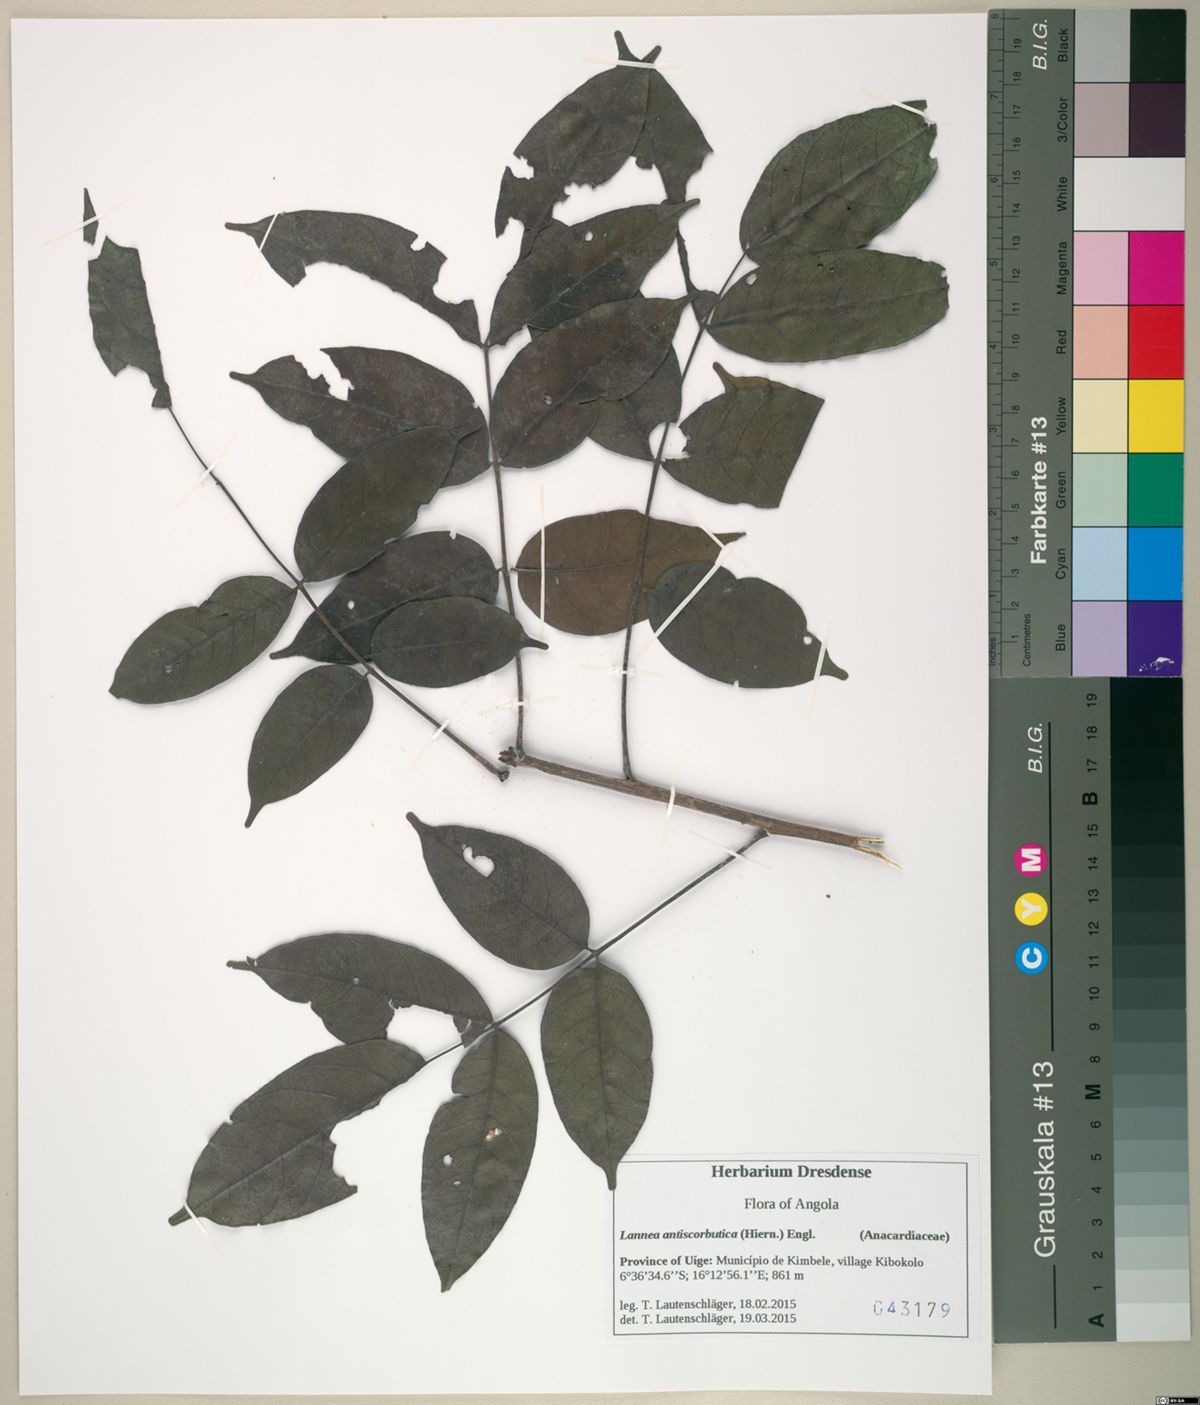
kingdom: Plantae
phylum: Tracheophyta
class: Magnoliopsida
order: Sapindales
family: Anacardiaceae
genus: Lannea
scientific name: Lannea antiscorbutica
